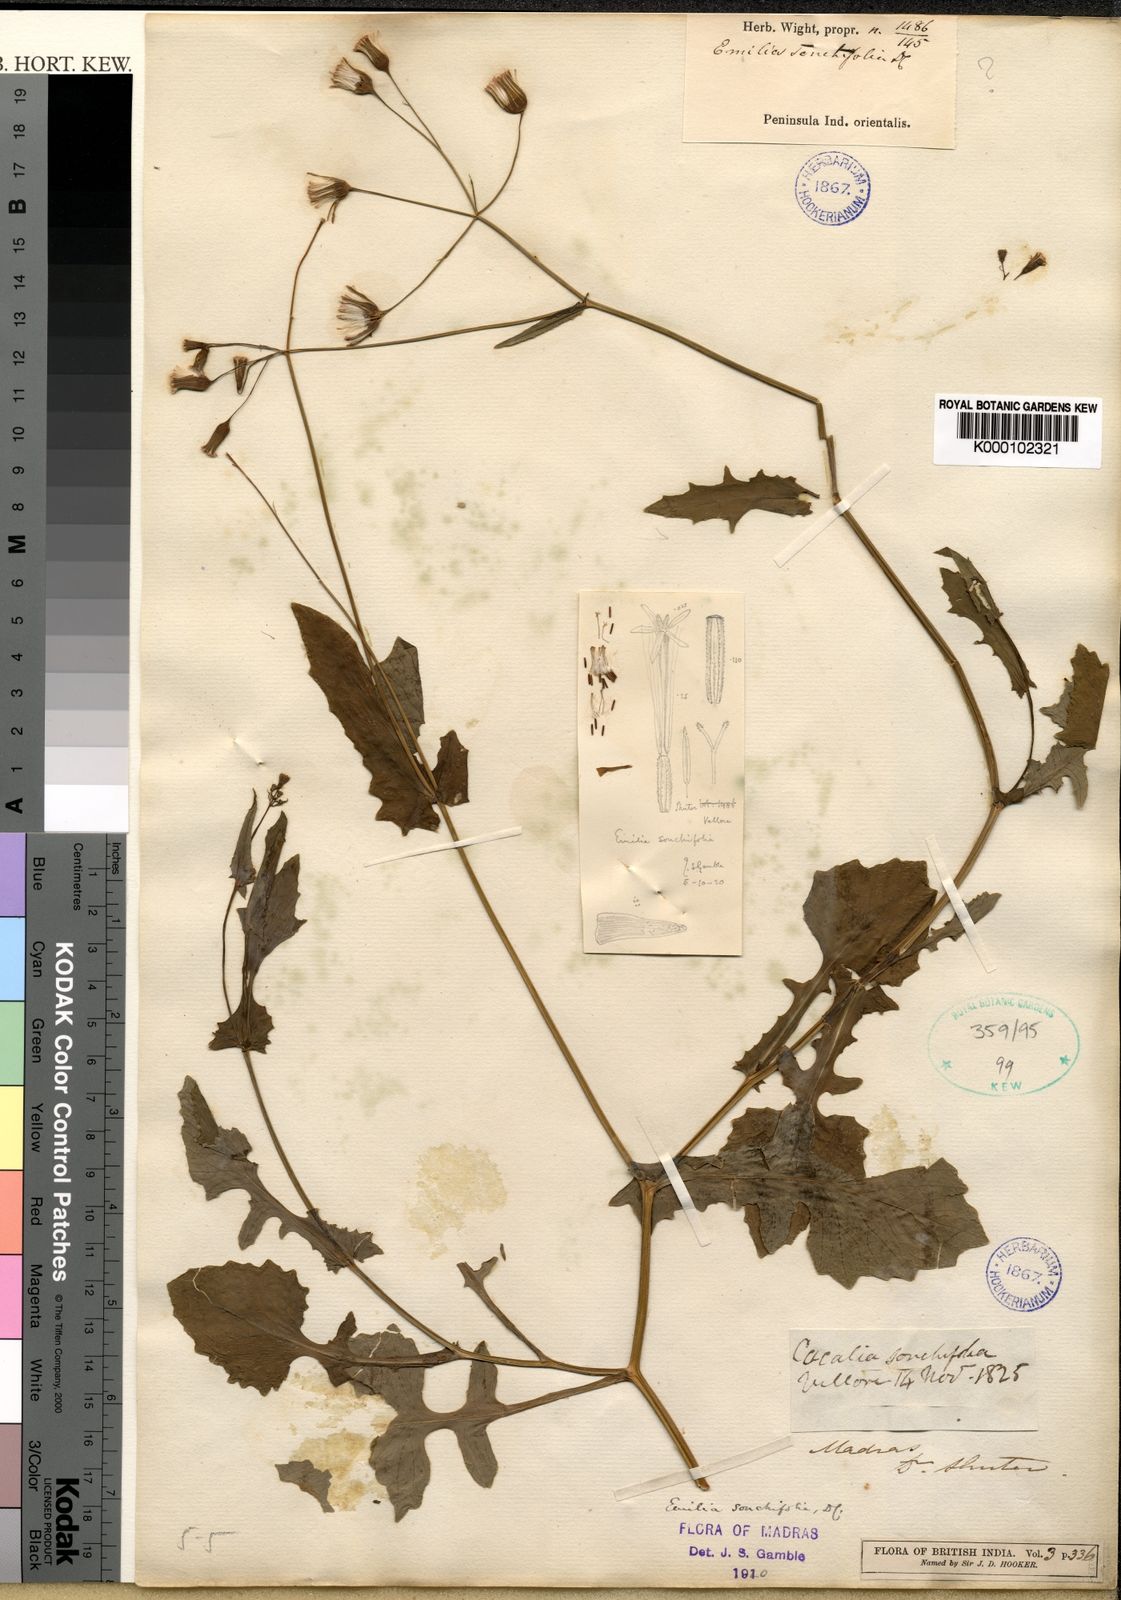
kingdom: Plantae
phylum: Tracheophyta
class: Magnoliopsida
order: Asterales
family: Asteraceae
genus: Emilia
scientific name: Emilia sonchifolia
